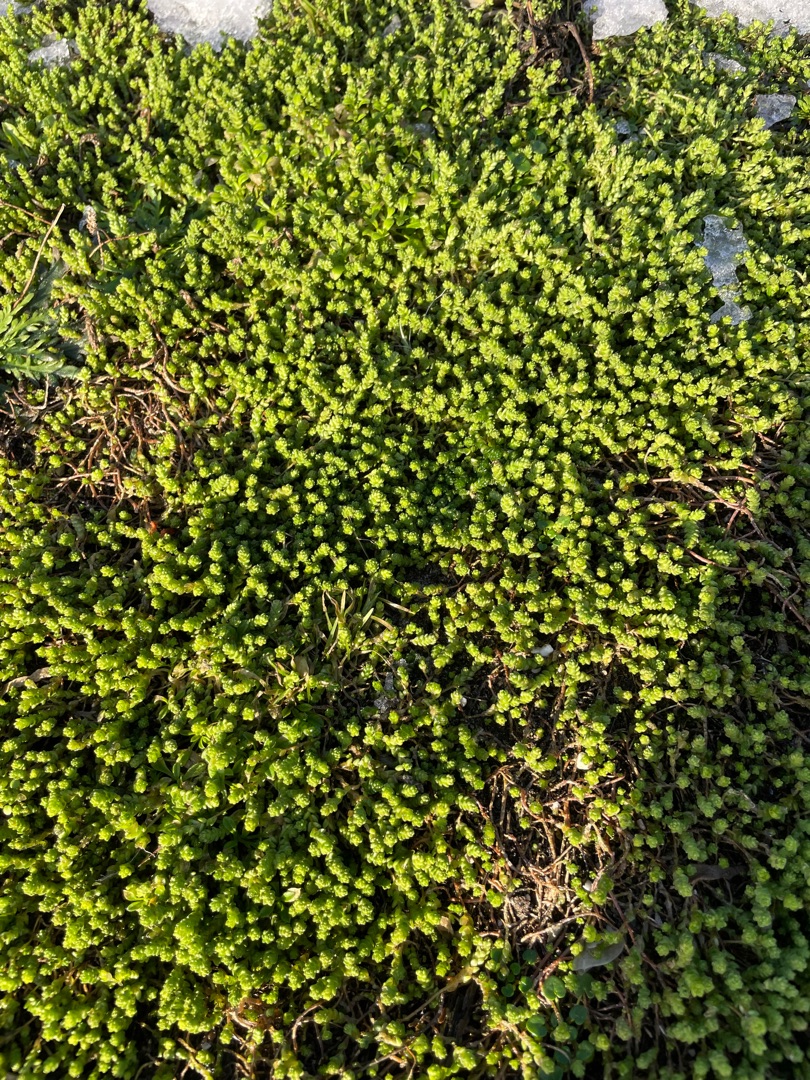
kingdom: Plantae
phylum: Tracheophyta
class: Magnoliopsida
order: Saxifragales
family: Crassulaceae
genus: Sedum
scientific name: Sedum acre
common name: Bidende stenurt
